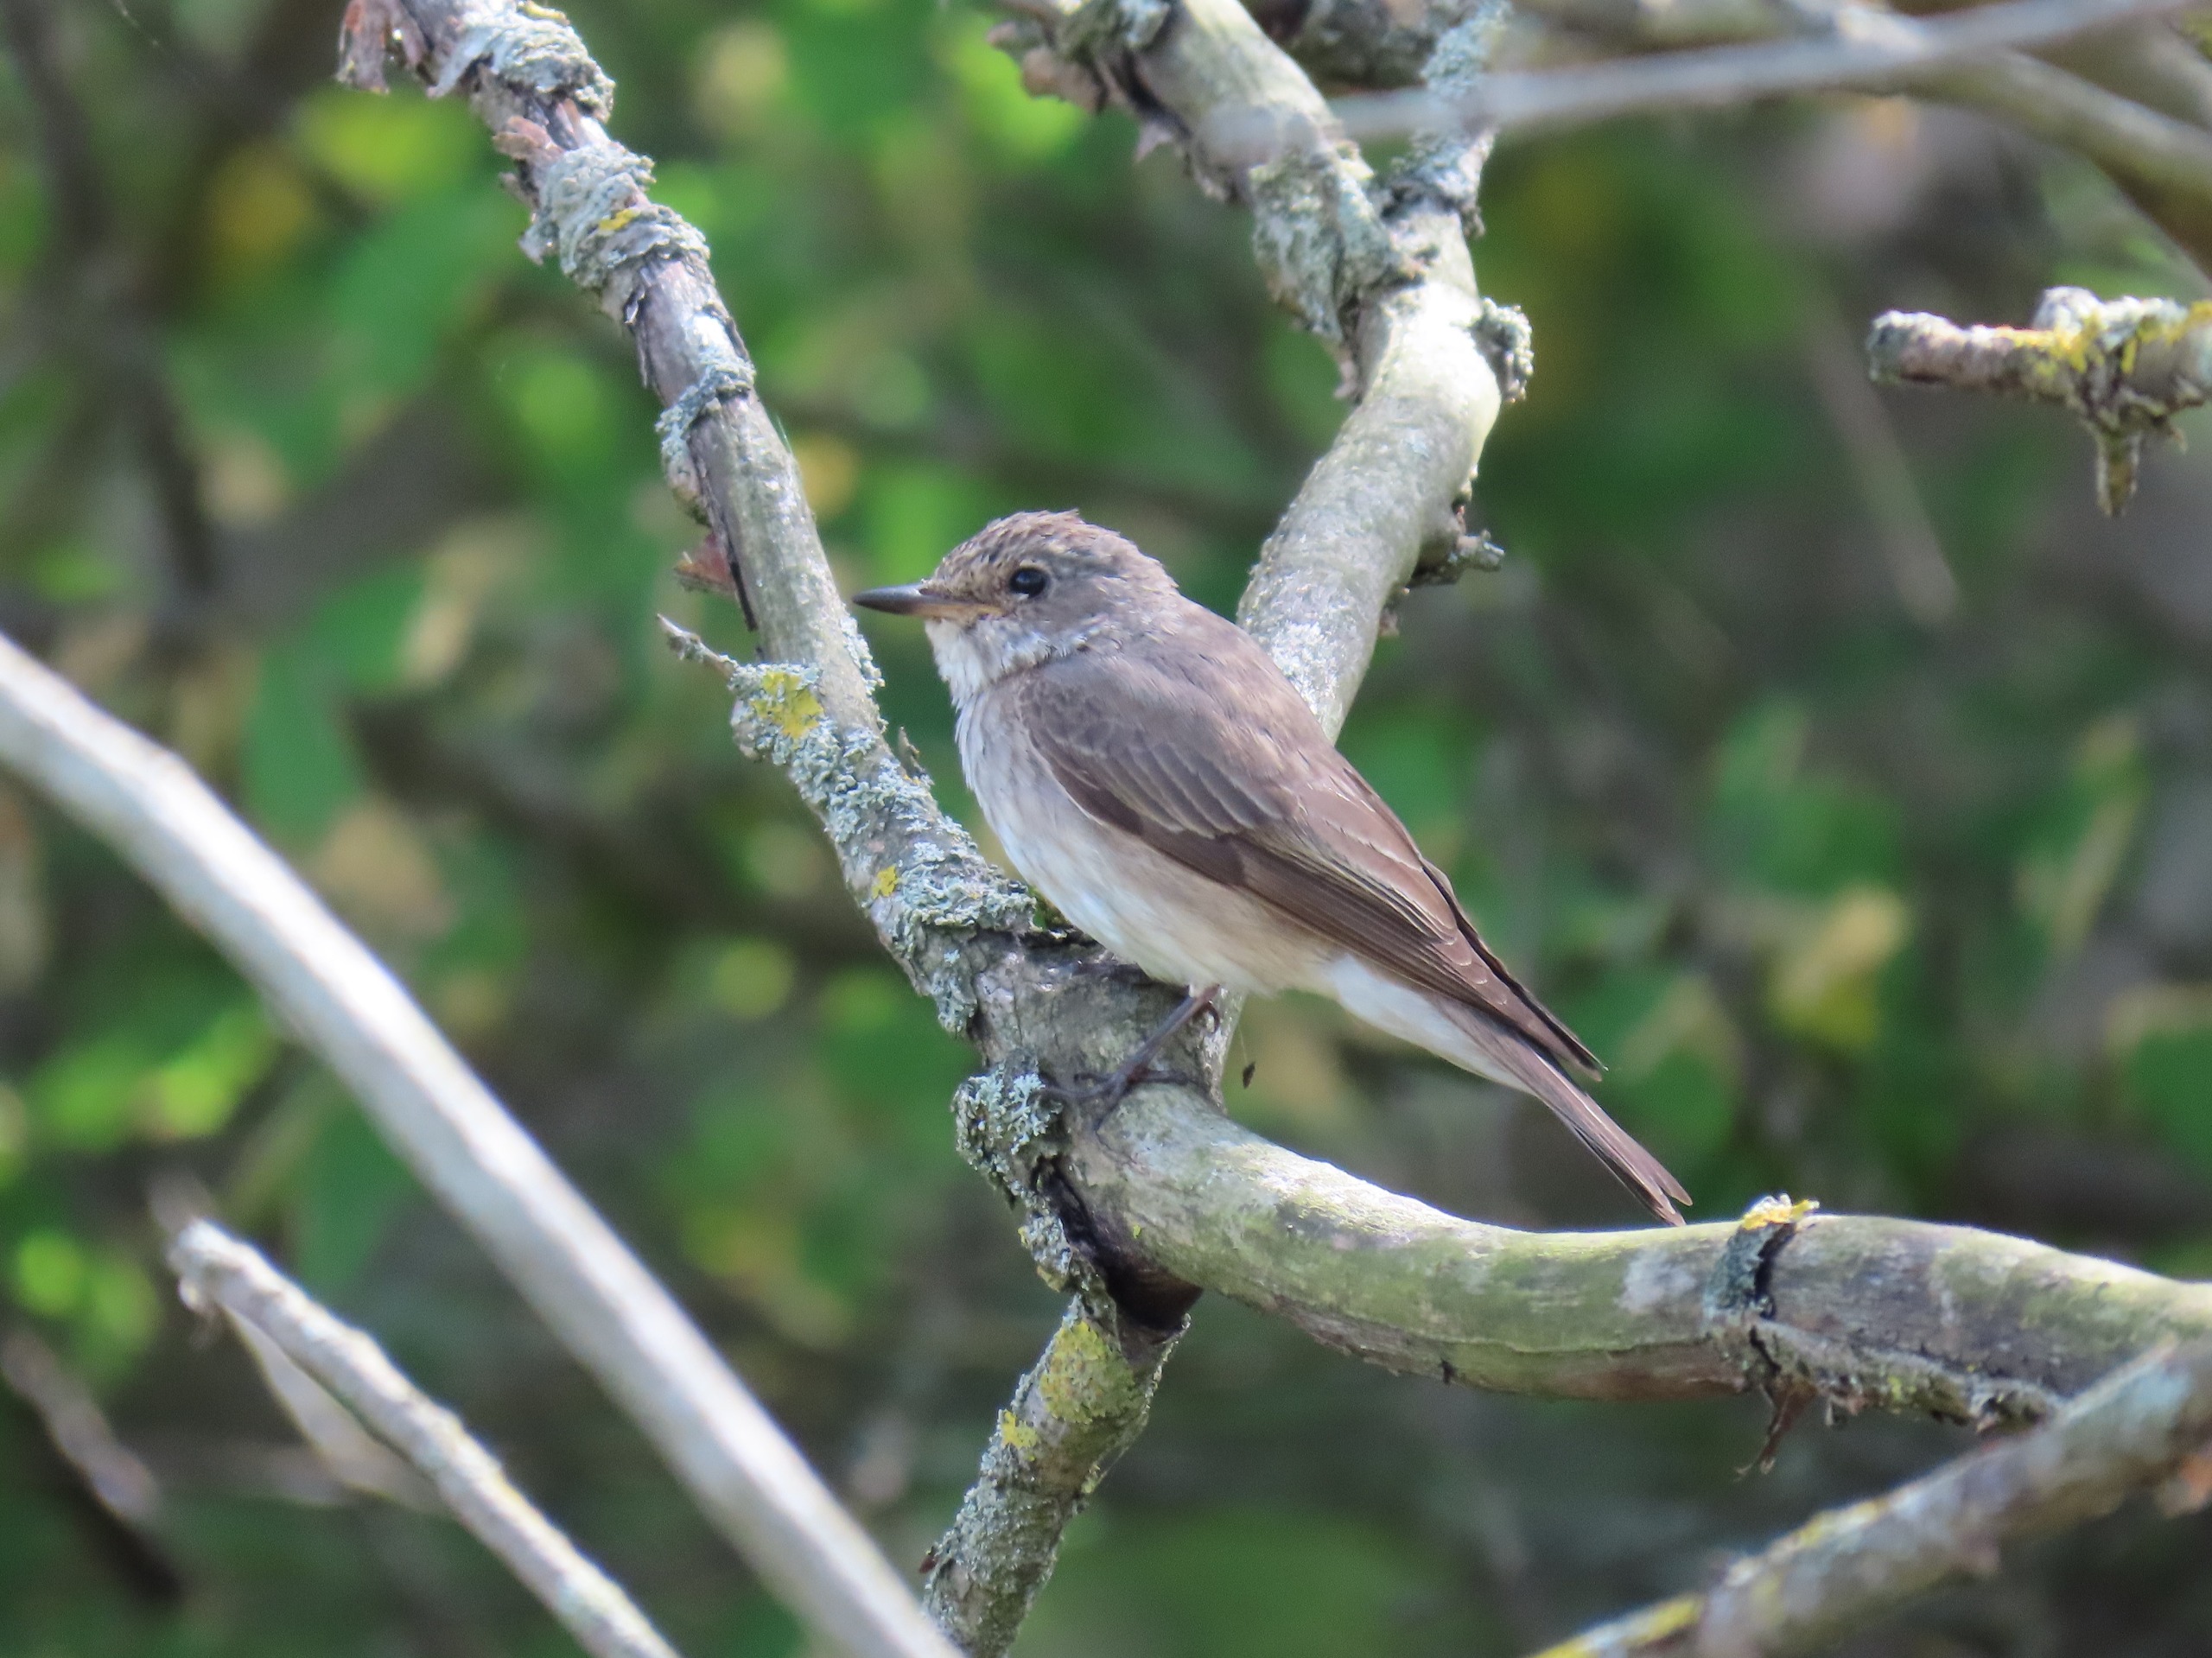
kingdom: Animalia
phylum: Chordata
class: Aves
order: Passeriformes
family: Muscicapidae
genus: Muscicapa
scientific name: Muscicapa striata
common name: Grå fluesnapper
